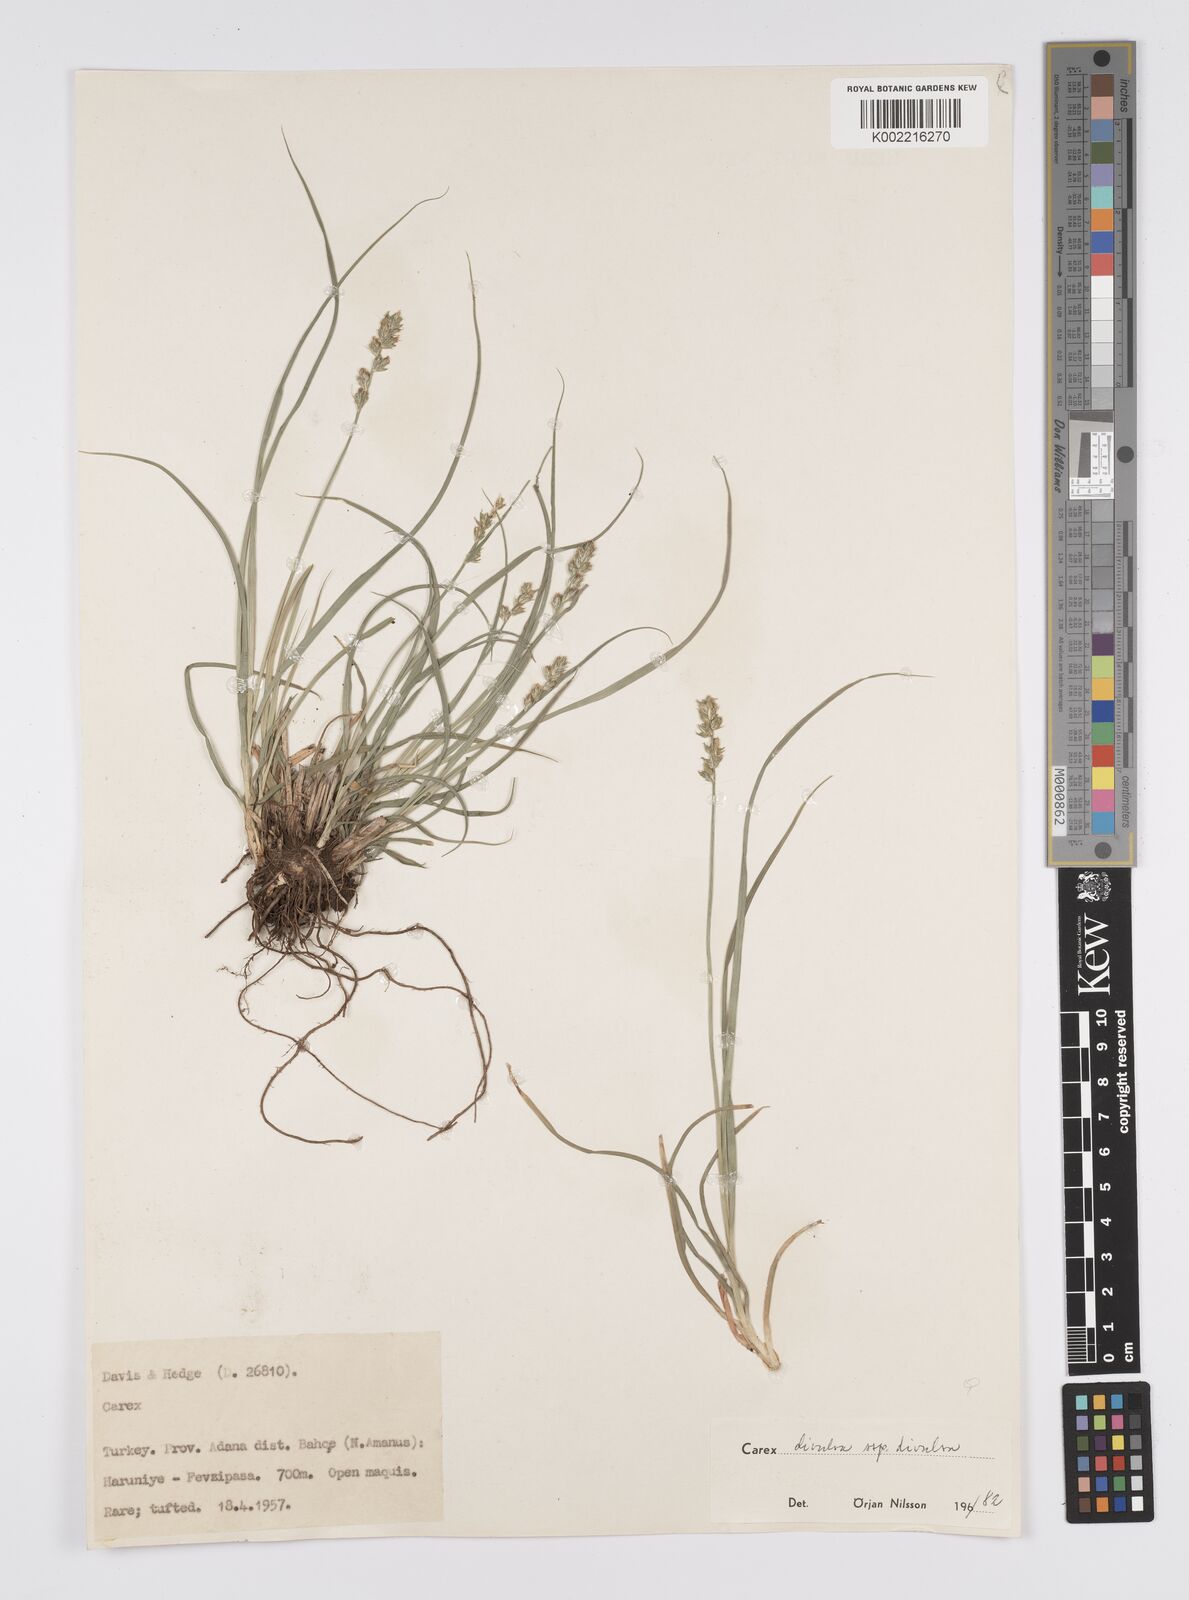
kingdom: Plantae
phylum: Tracheophyta
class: Liliopsida
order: Poales
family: Cyperaceae
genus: Carex
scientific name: Carex divulsa
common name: Grassland sedge
